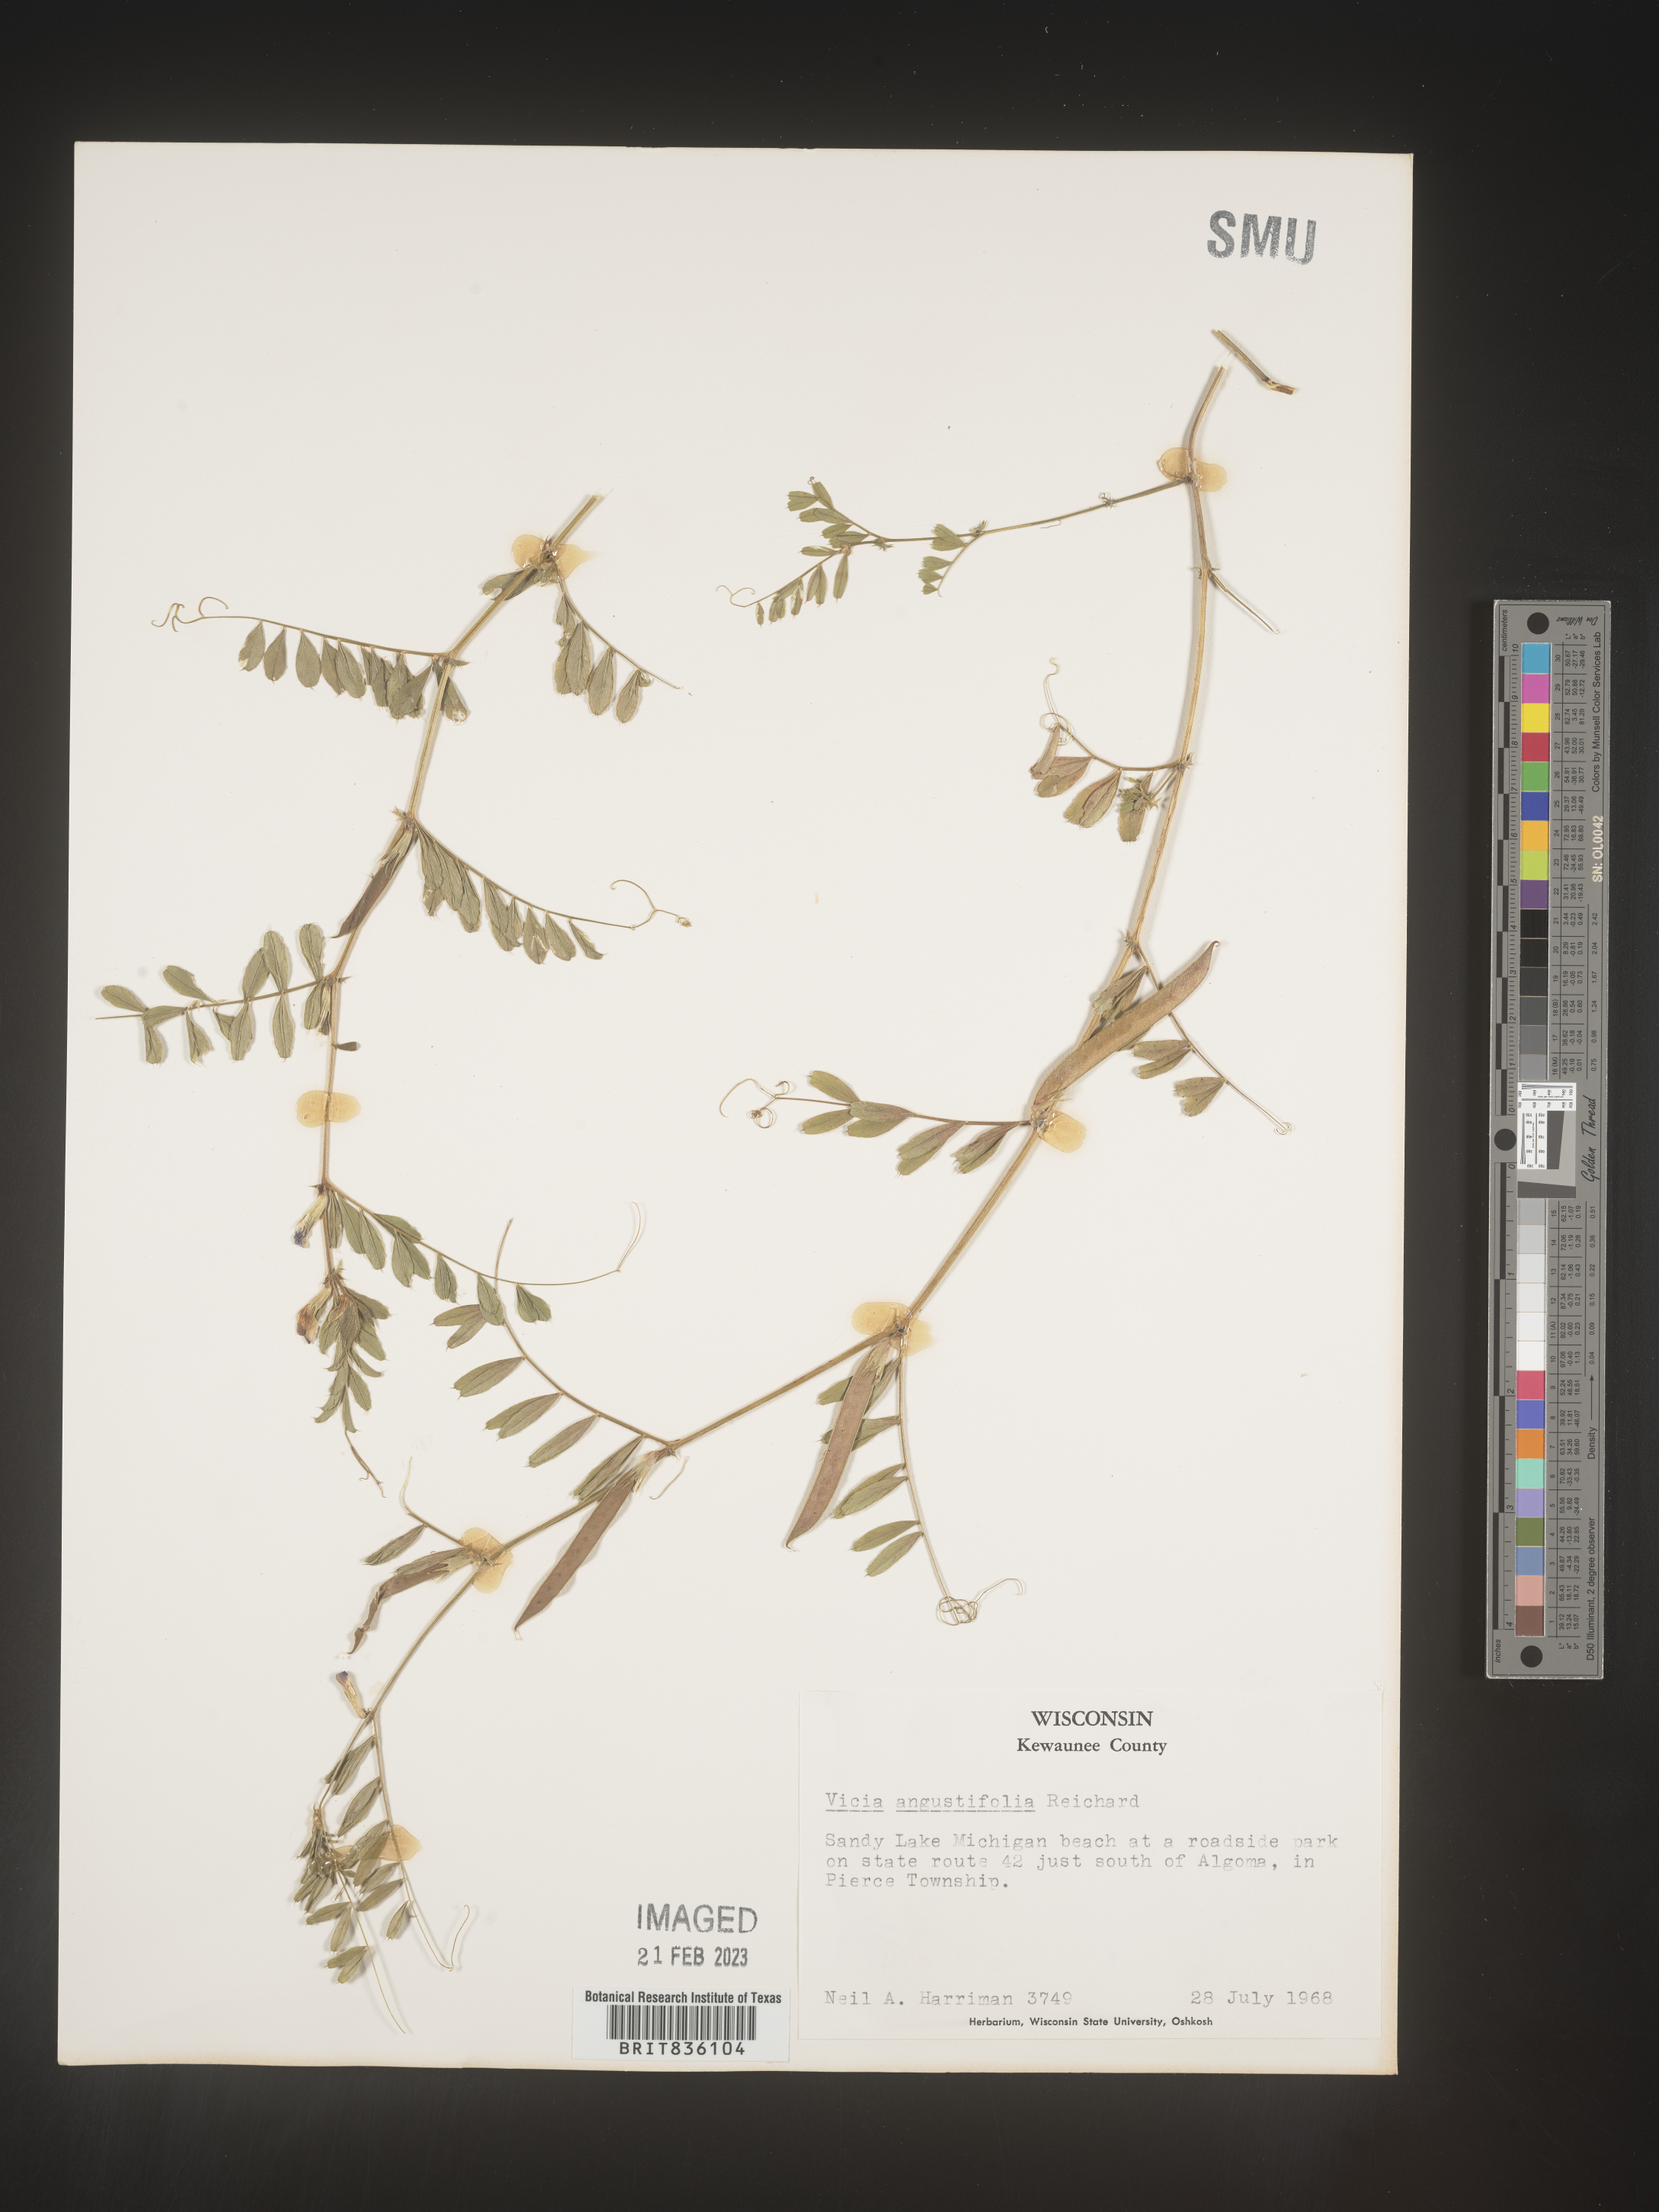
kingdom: Plantae
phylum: Tracheophyta
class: Magnoliopsida
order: Fabales
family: Fabaceae
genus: Vicia
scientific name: Vicia sativa
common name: Garden vetch
